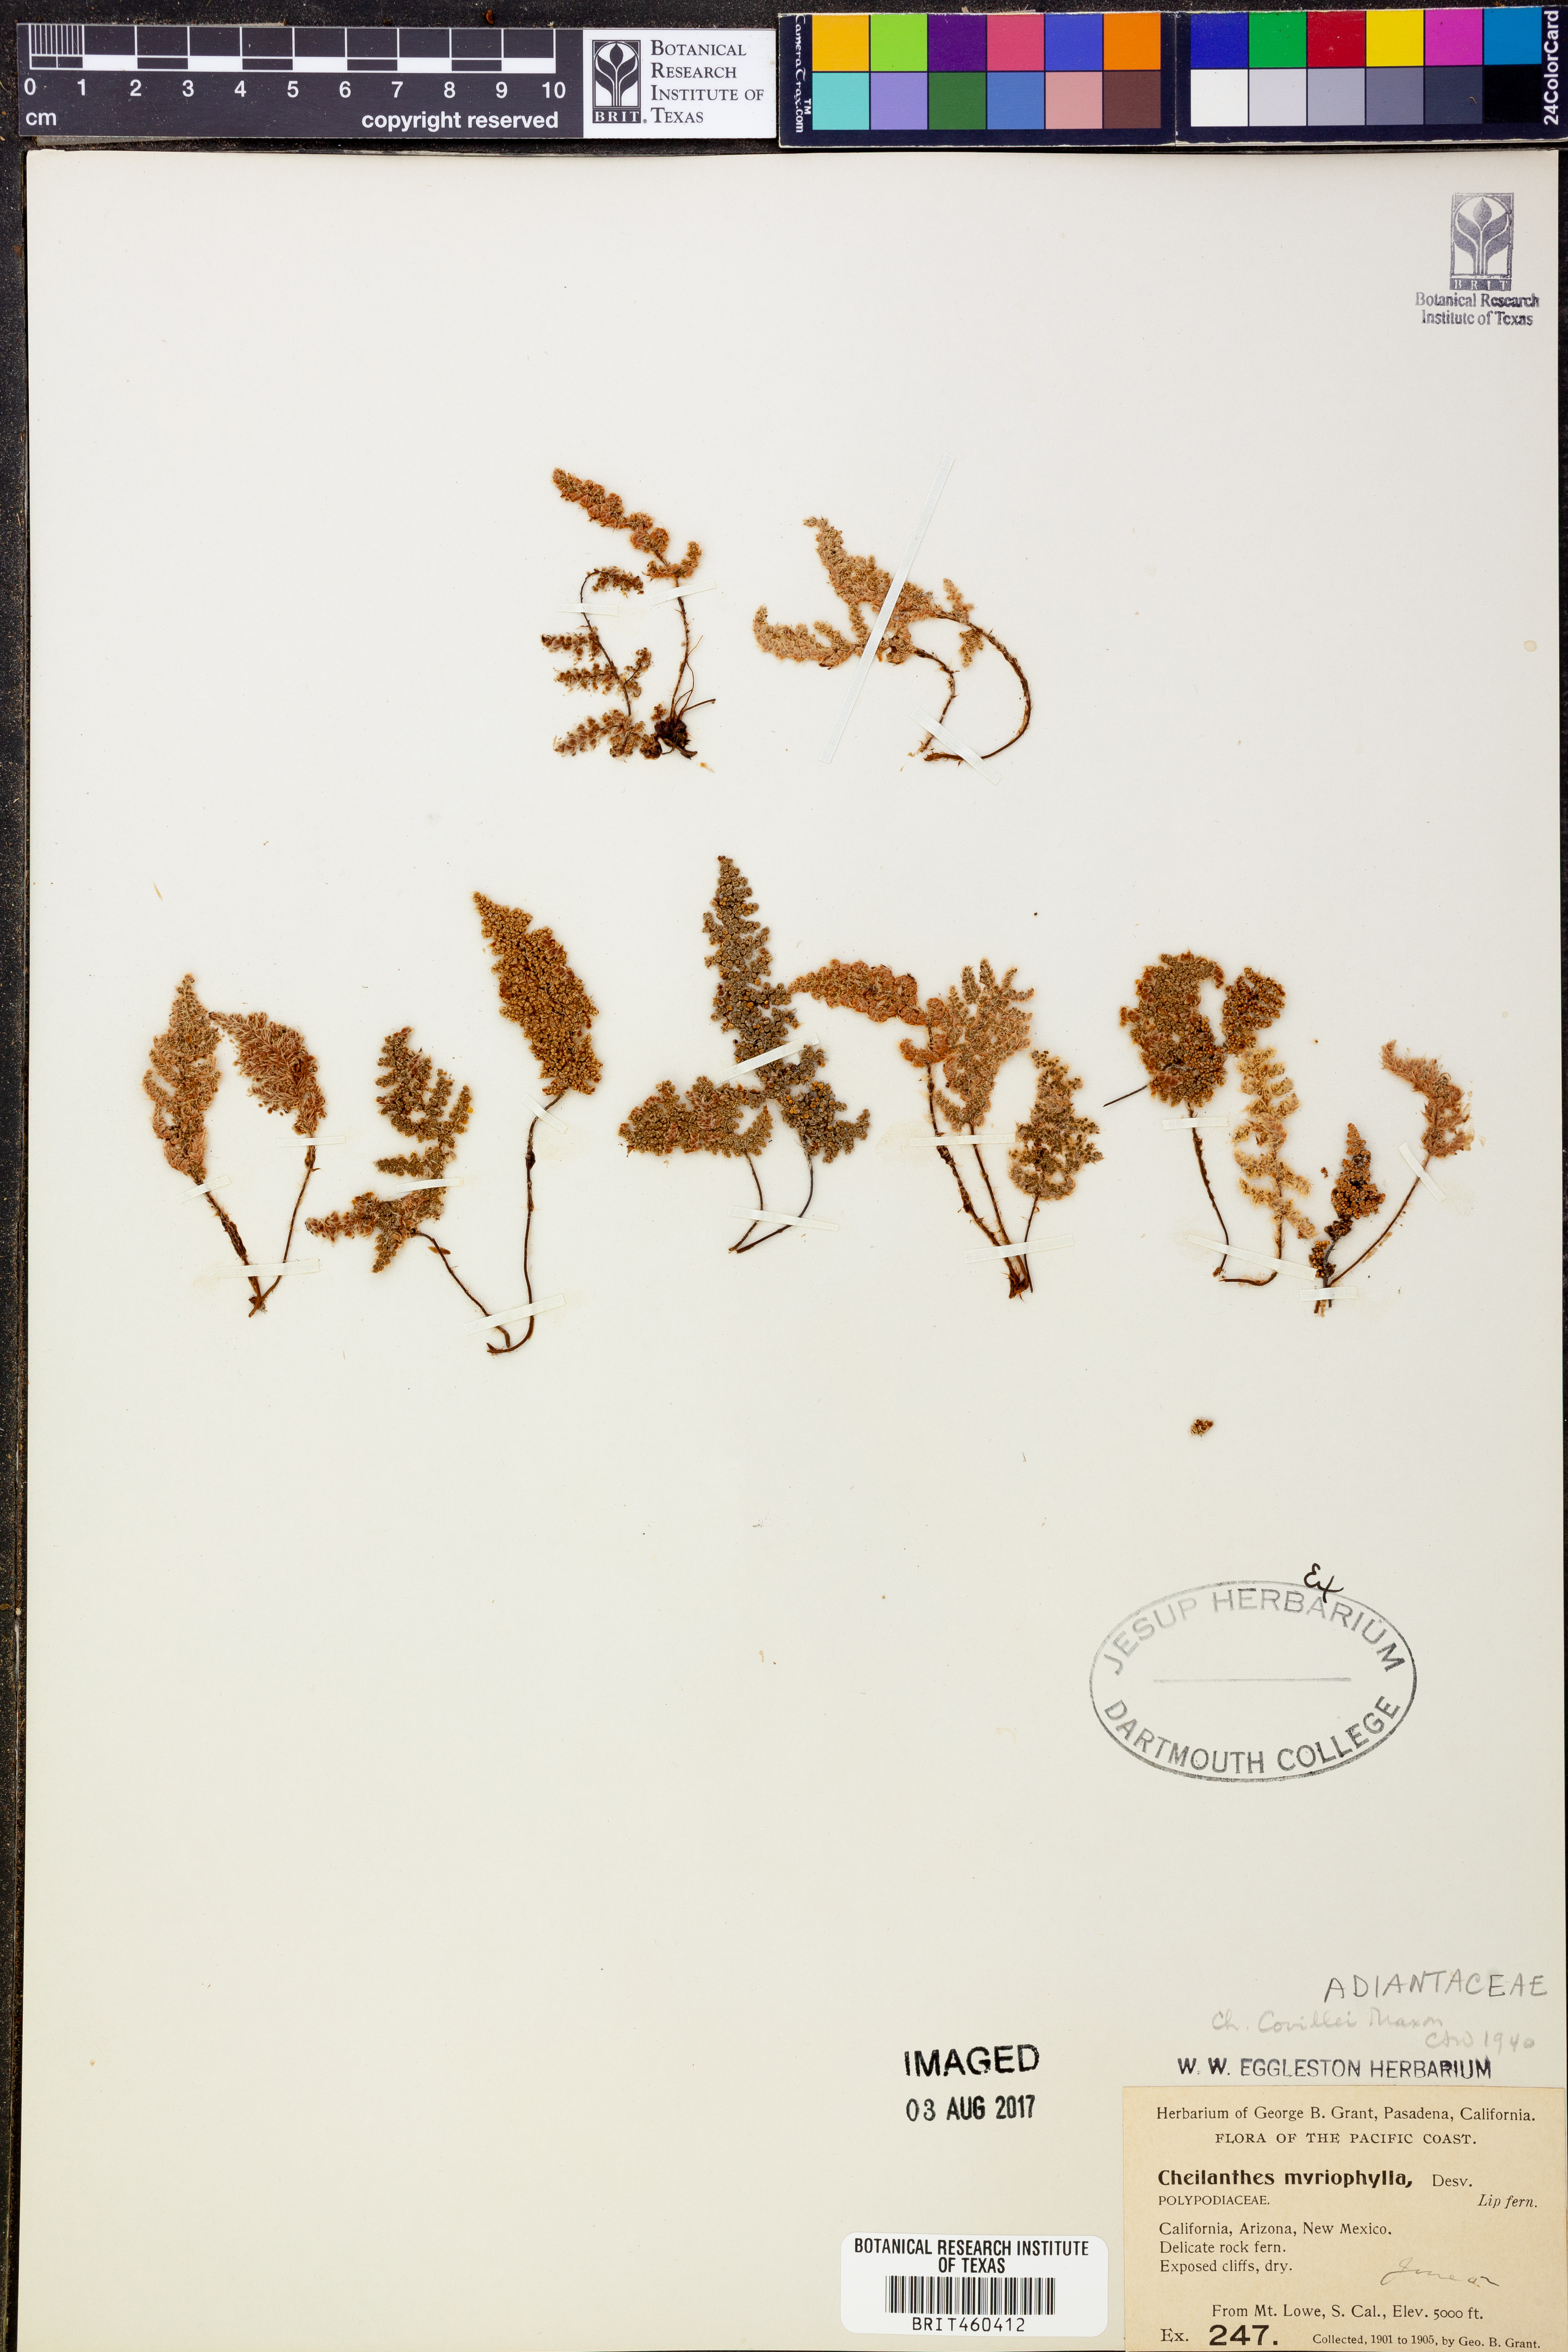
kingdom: Plantae
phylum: Tracheophyta
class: Polypodiopsida
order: Polypodiales
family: Pteridaceae
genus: Myriopteris
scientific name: Myriopteris myriophylla
